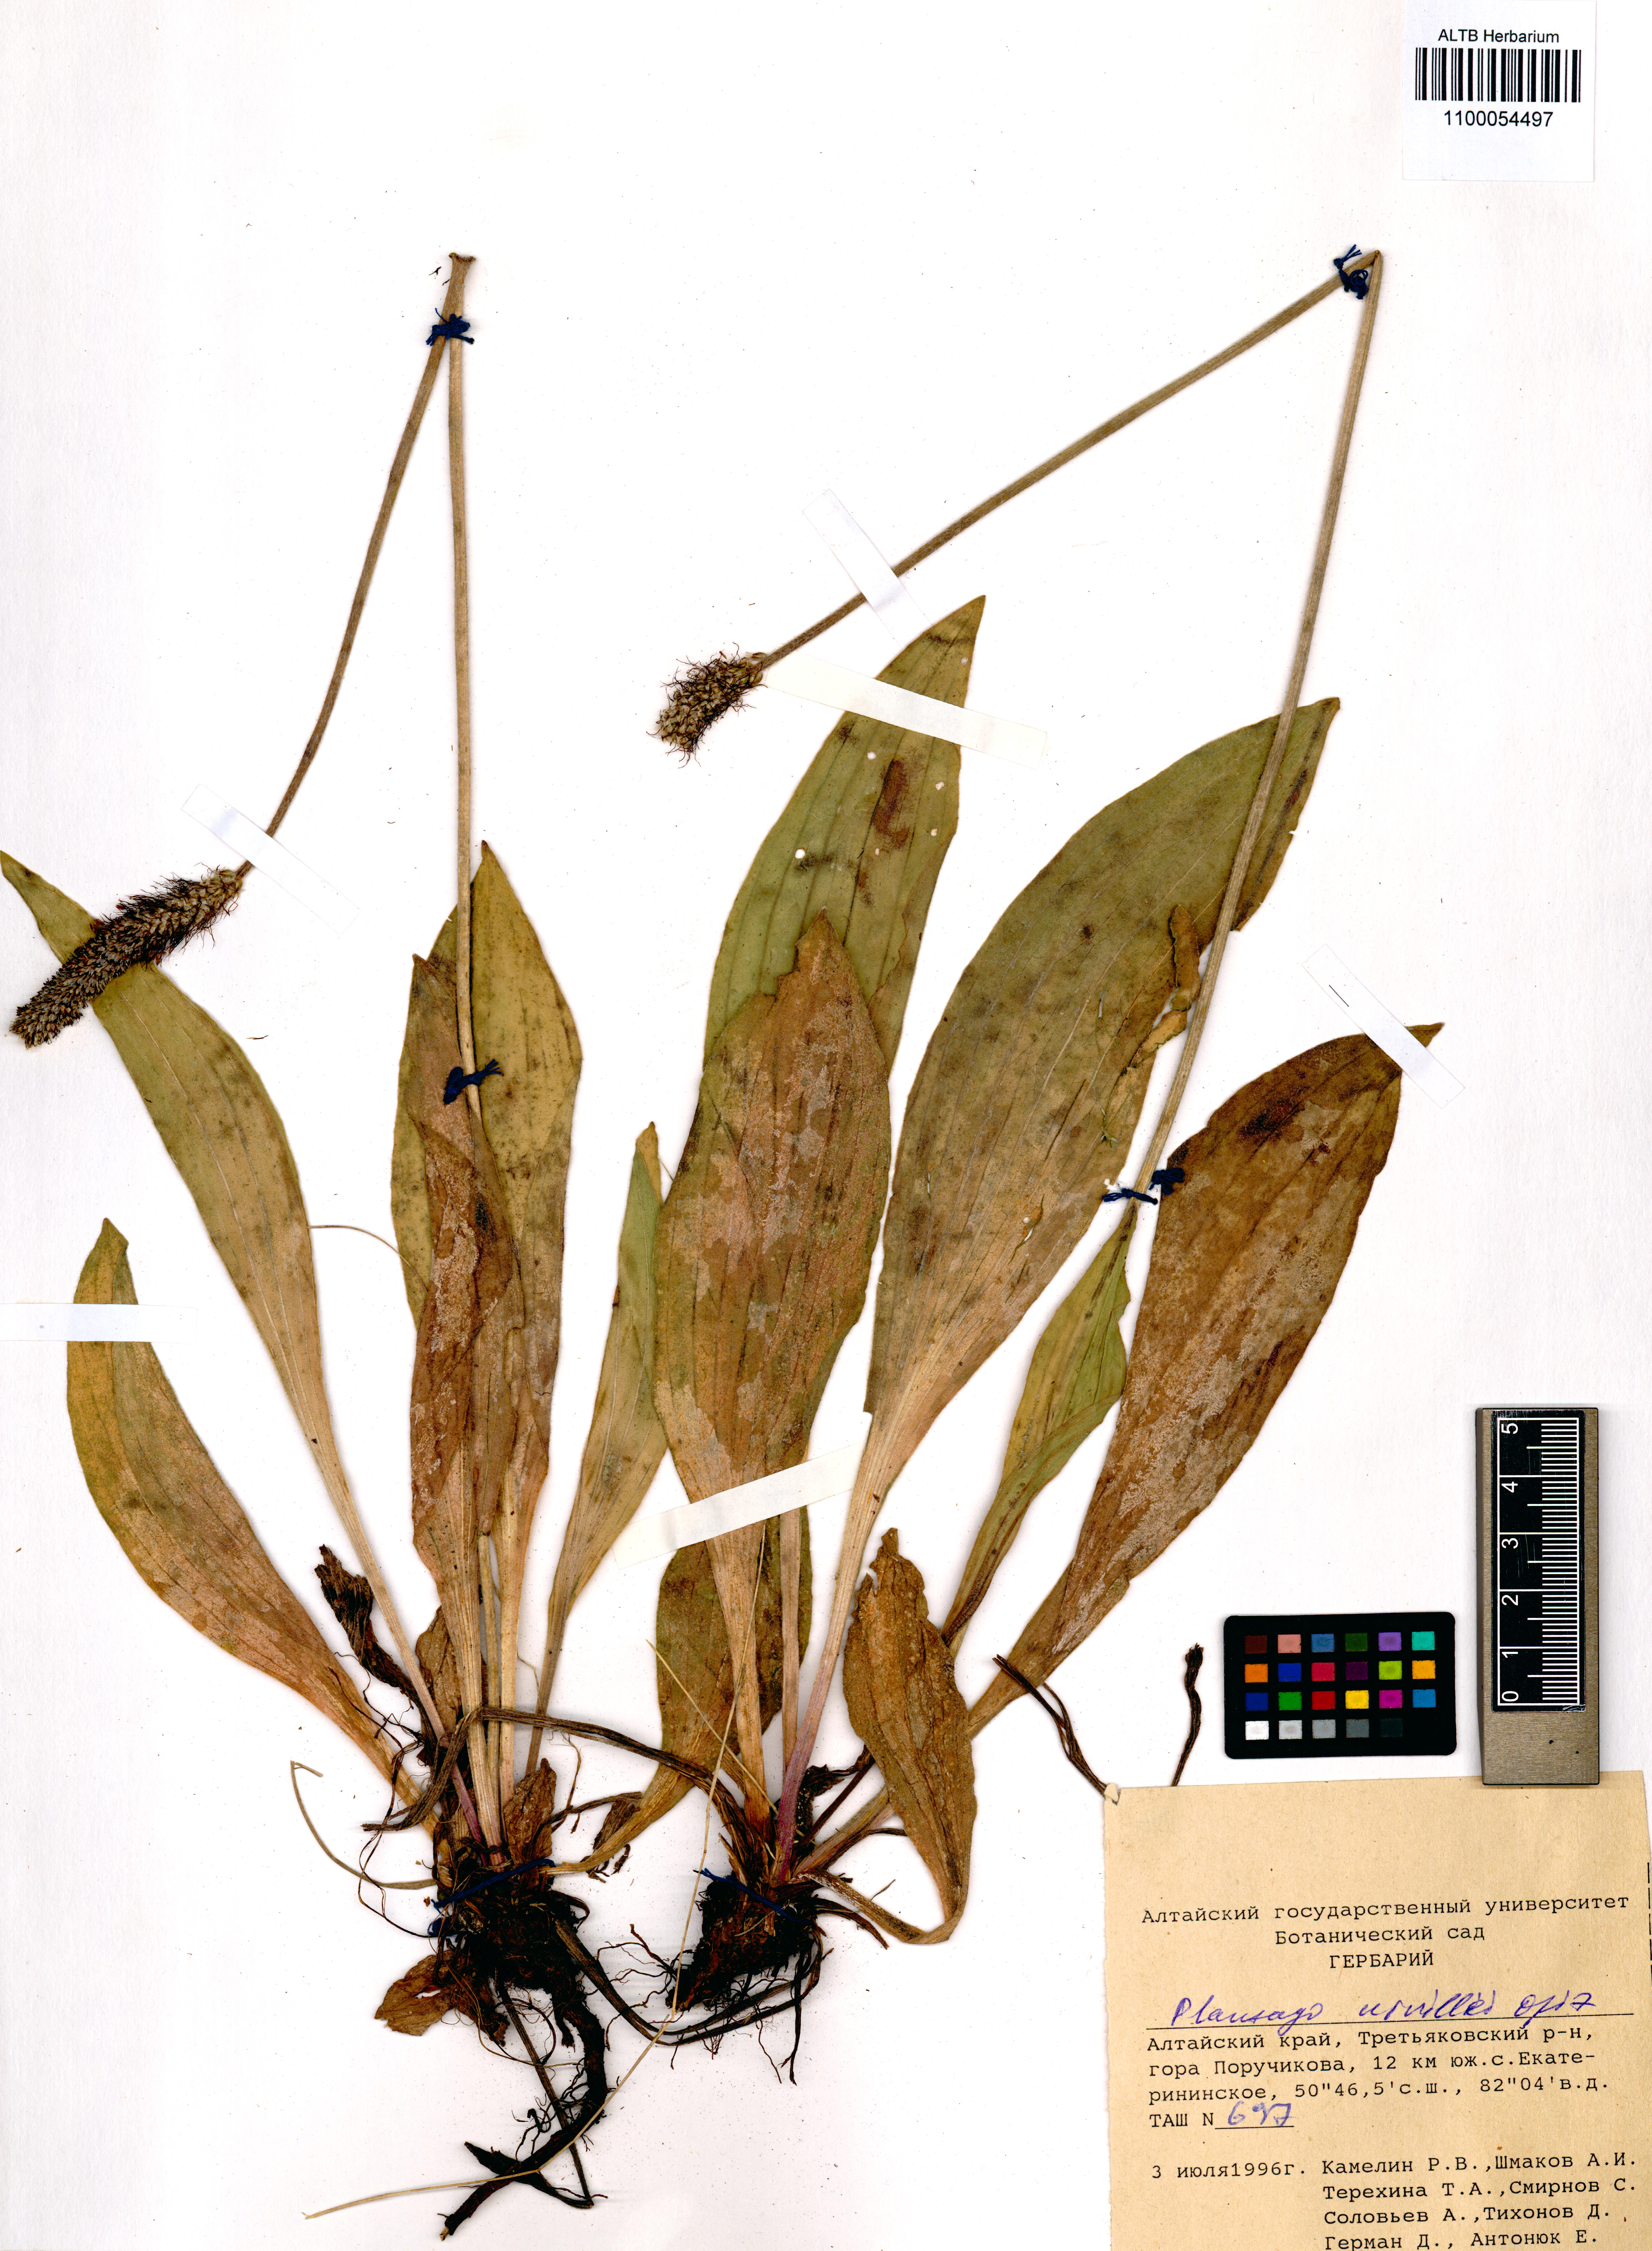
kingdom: Plantae
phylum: Tracheophyta
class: Magnoliopsida
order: Lamiales
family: Plantaginaceae
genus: Plantago
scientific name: Plantago urvillei
